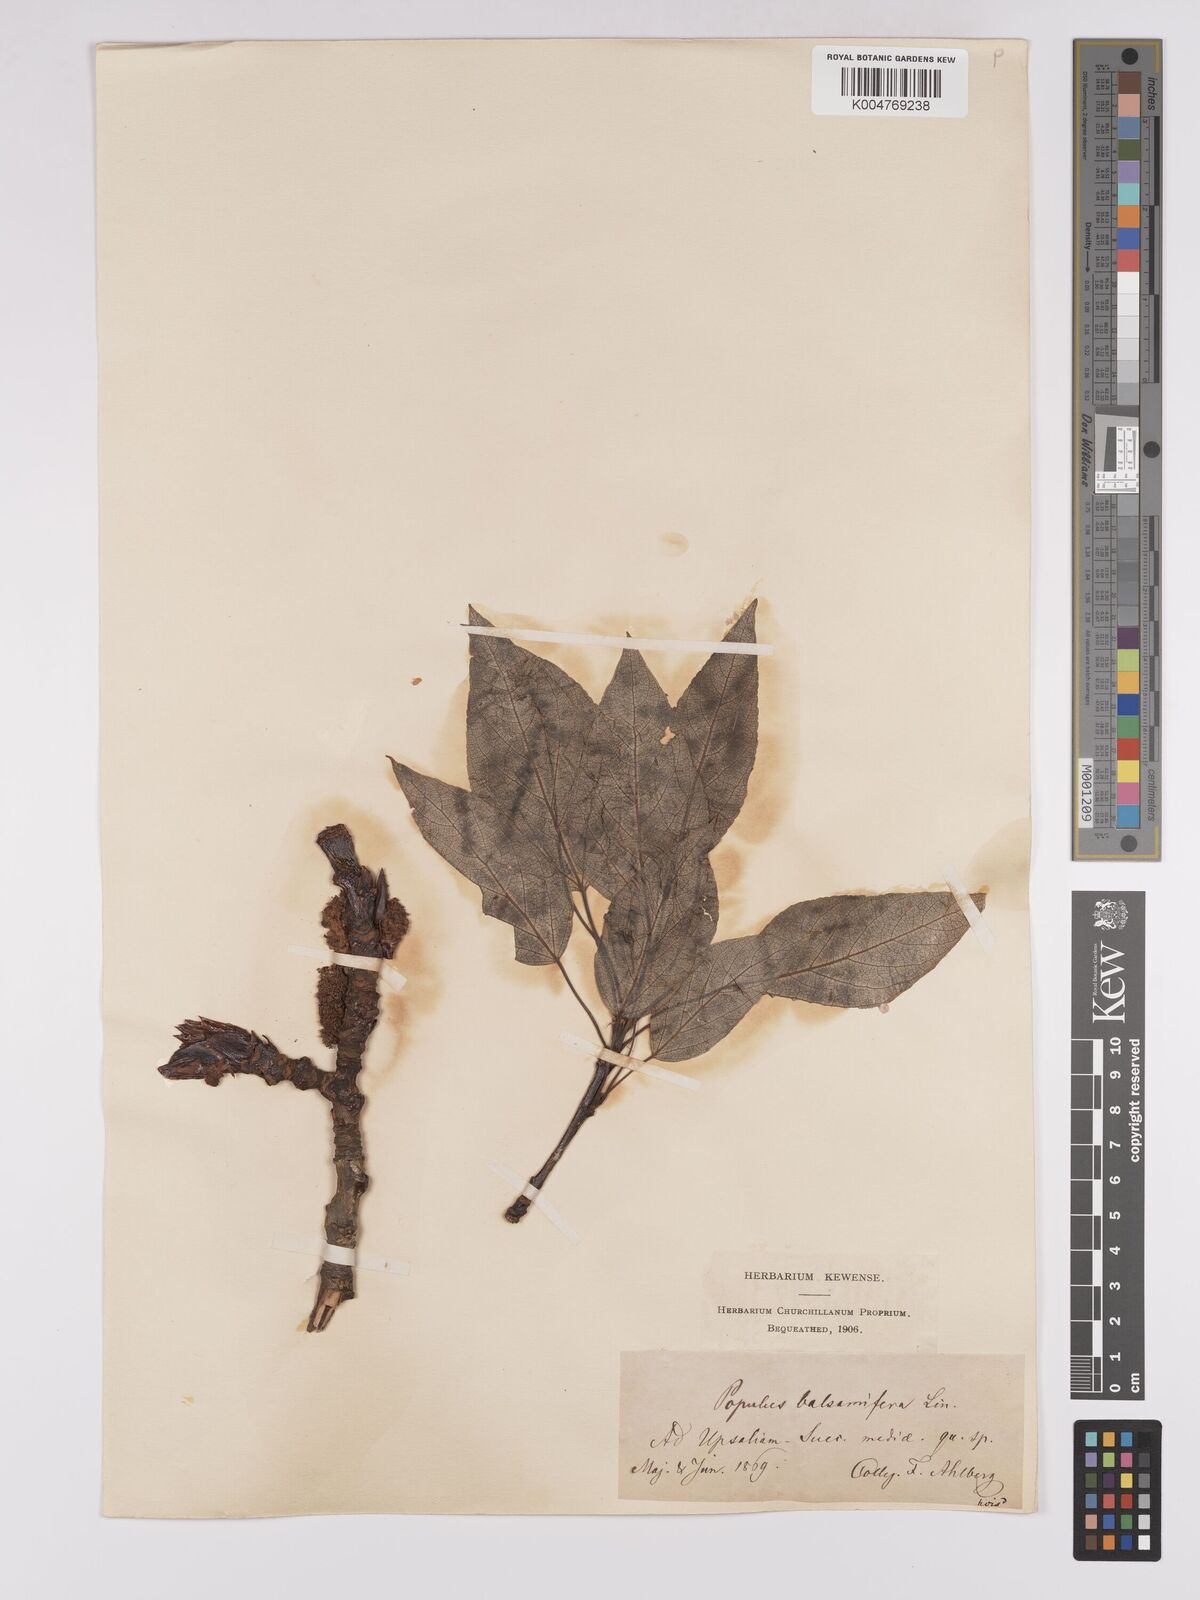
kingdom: Plantae
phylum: Tracheophyta
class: Magnoliopsida
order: Malpighiales
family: Salicaceae
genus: Populus
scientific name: Populus balsamifera
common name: Balsam poplar
